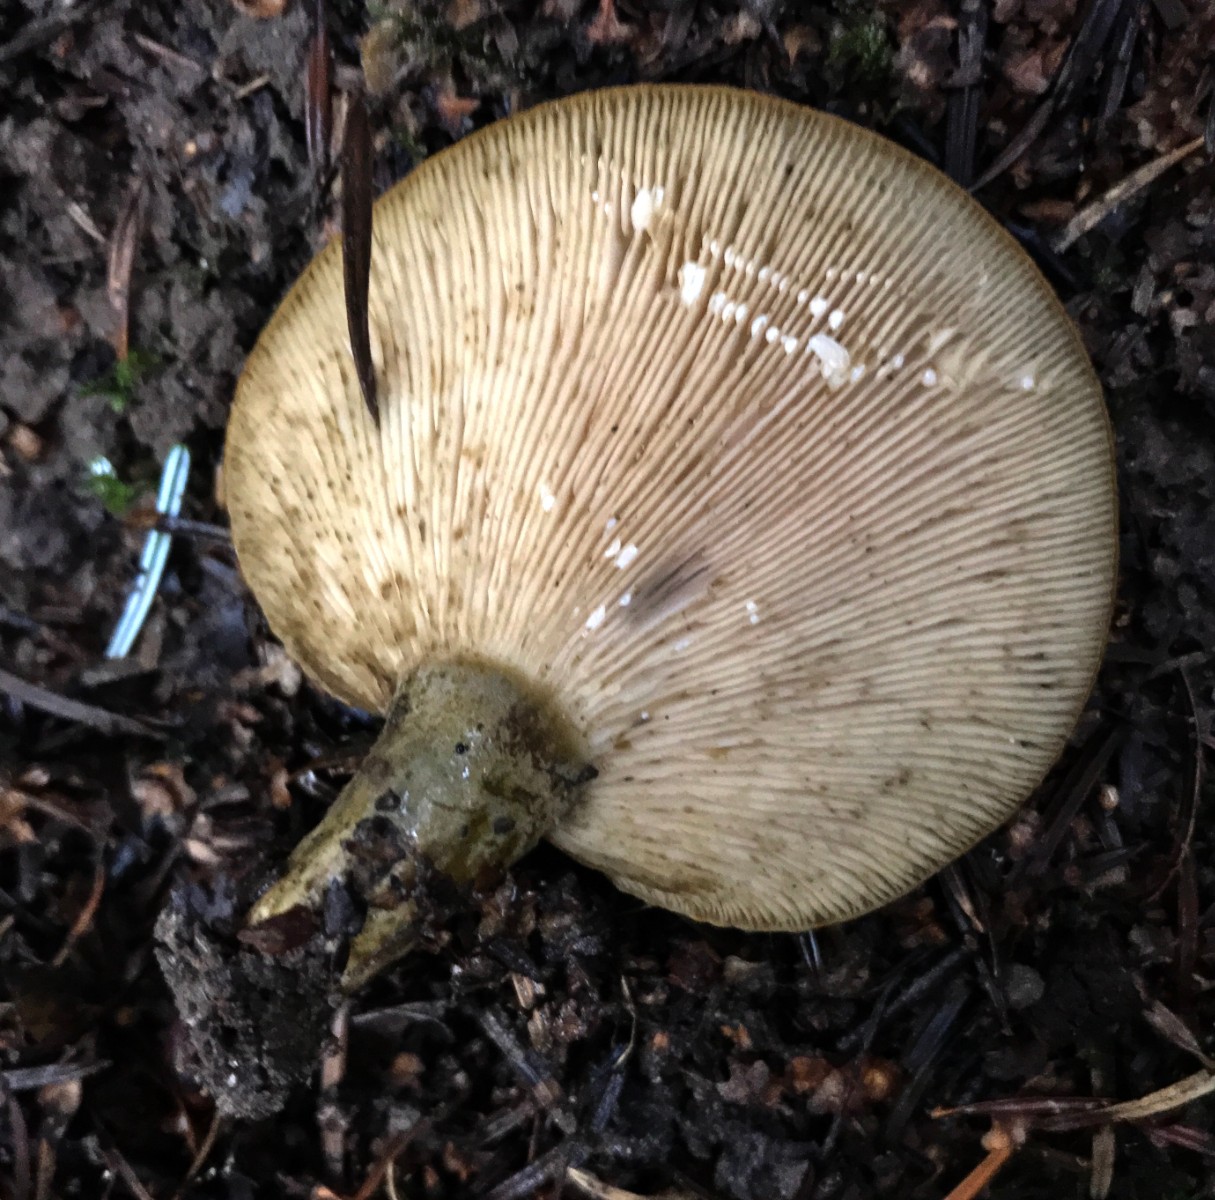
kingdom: Fungi
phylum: Basidiomycota
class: Agaricomycetes
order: Russulales
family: Russulaceae
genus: Lactarius
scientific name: Lactarius necator
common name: manddraber-mælkehat
